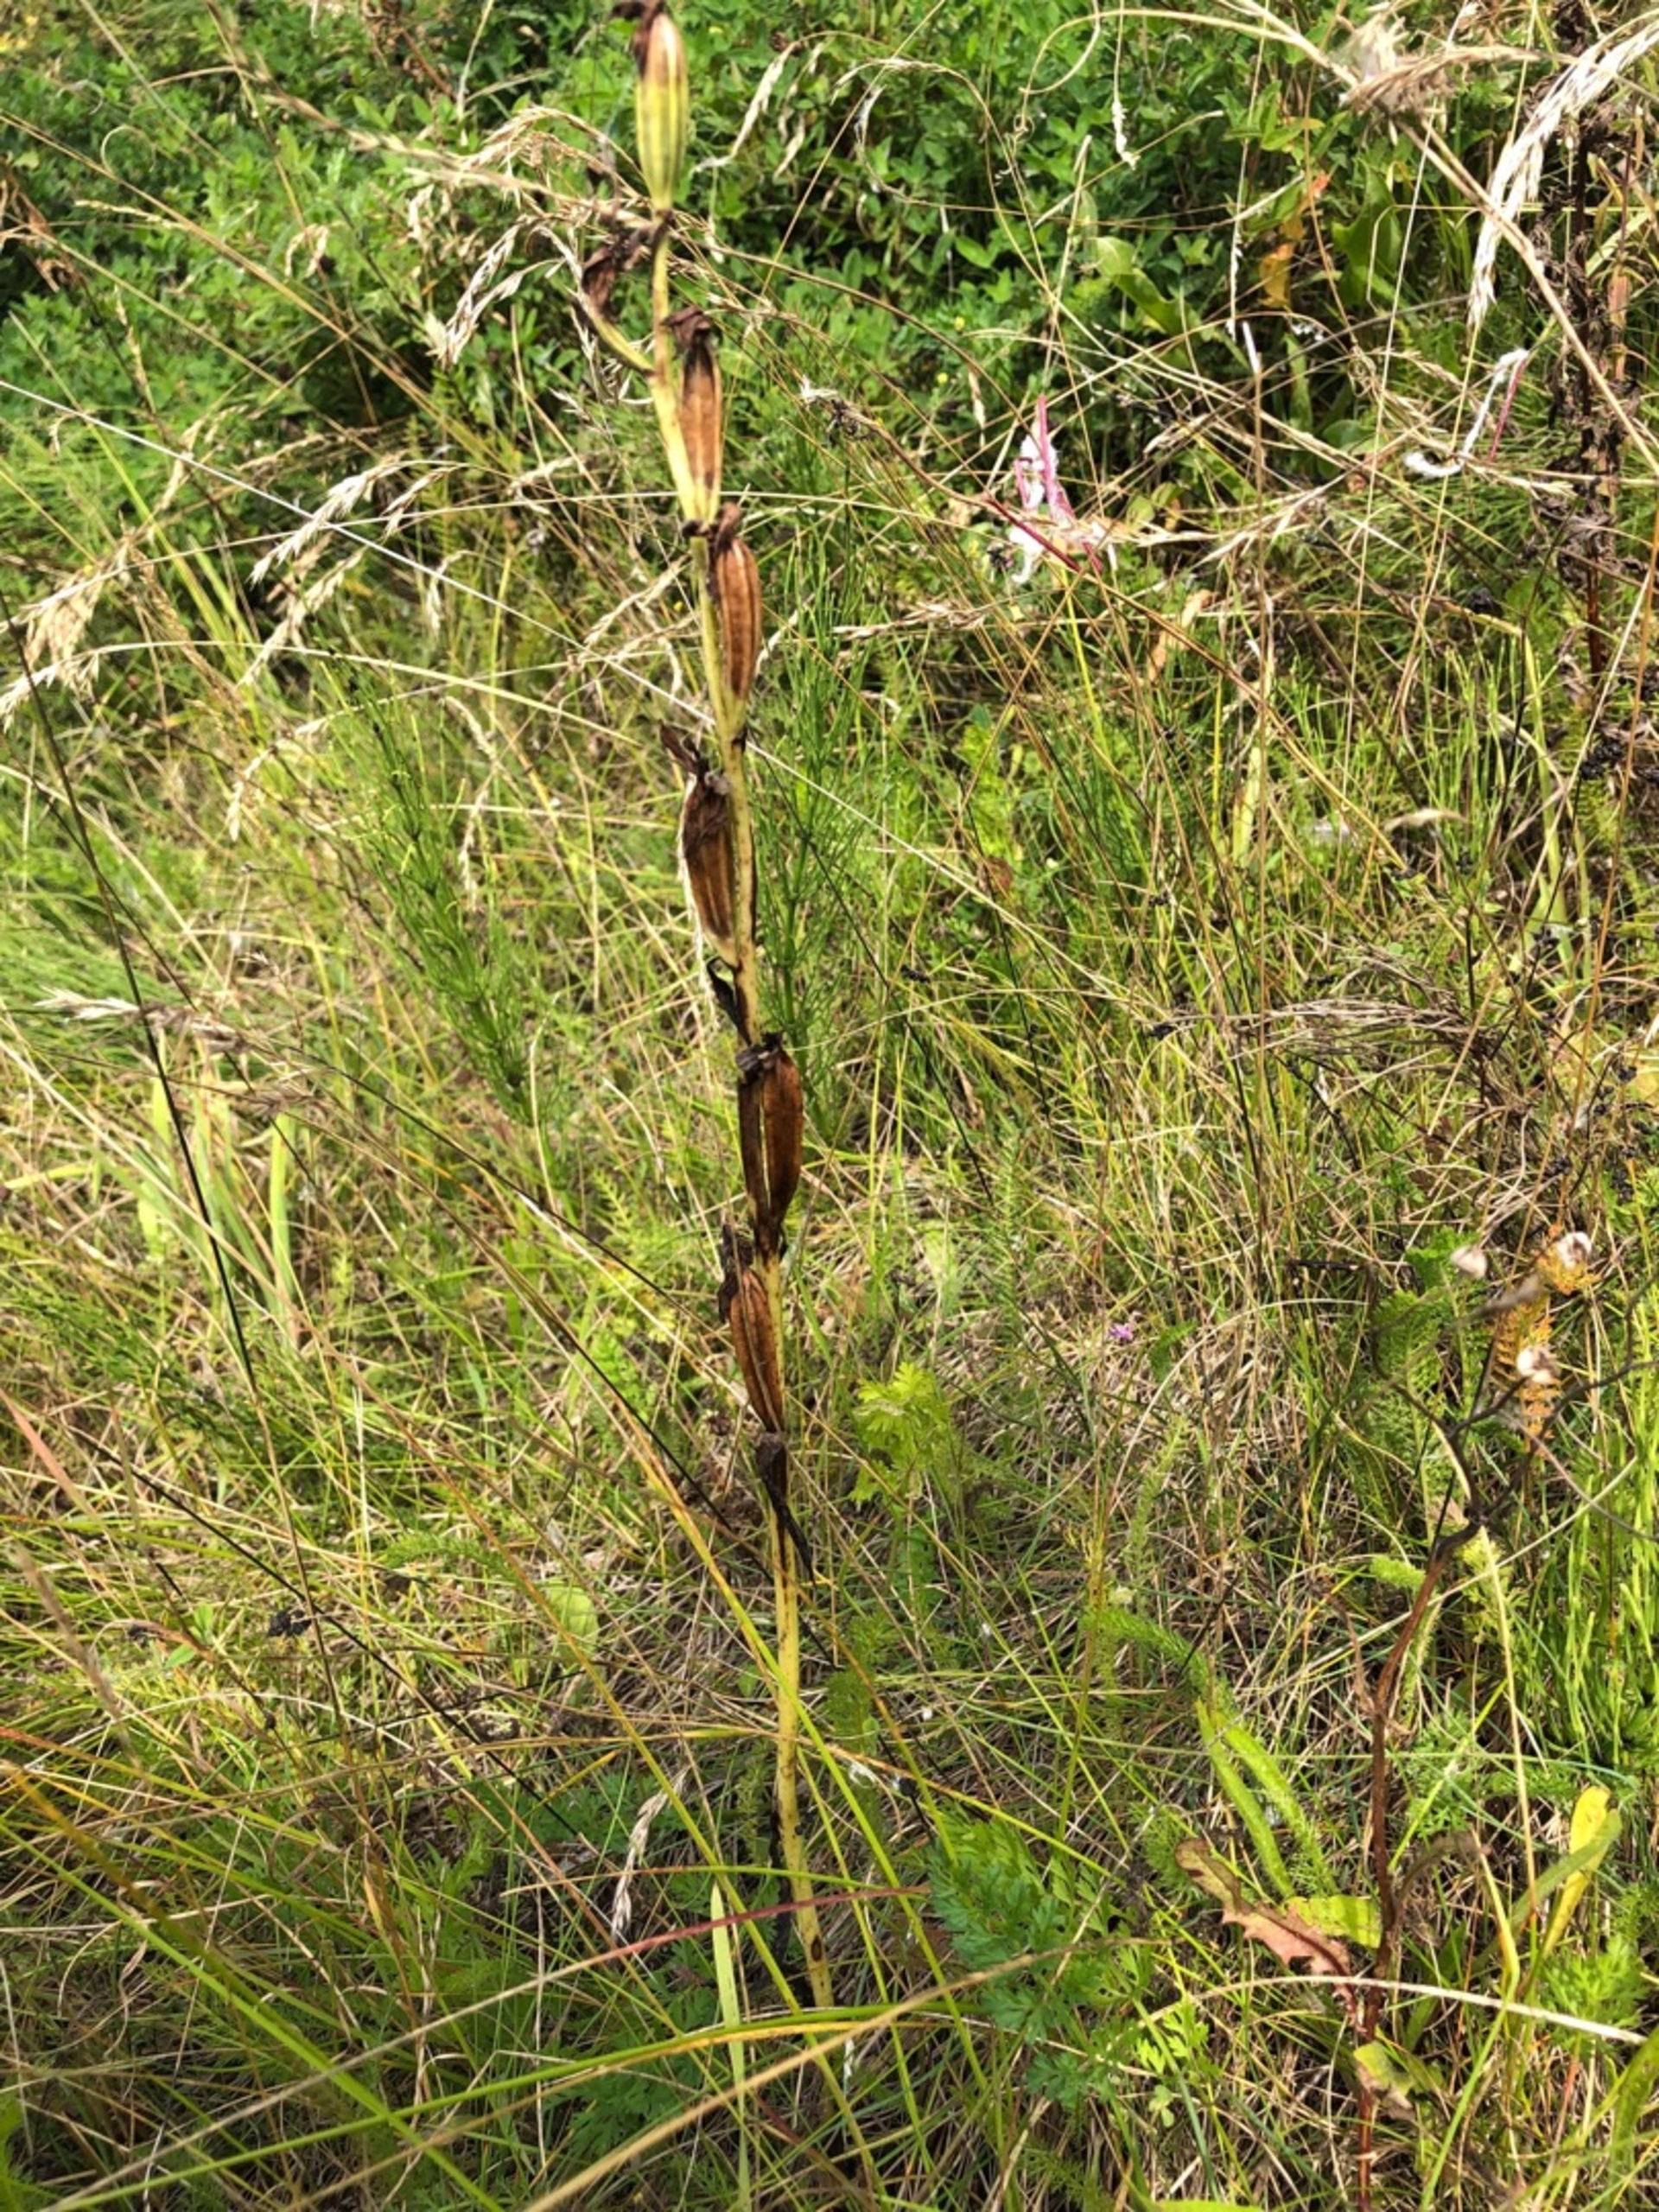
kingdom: Plantae
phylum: Tracheophyta
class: Liliopsida
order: Asparagales
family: Orchidaceae
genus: Ophrys
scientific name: Ophrys apifera
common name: Biblomst
